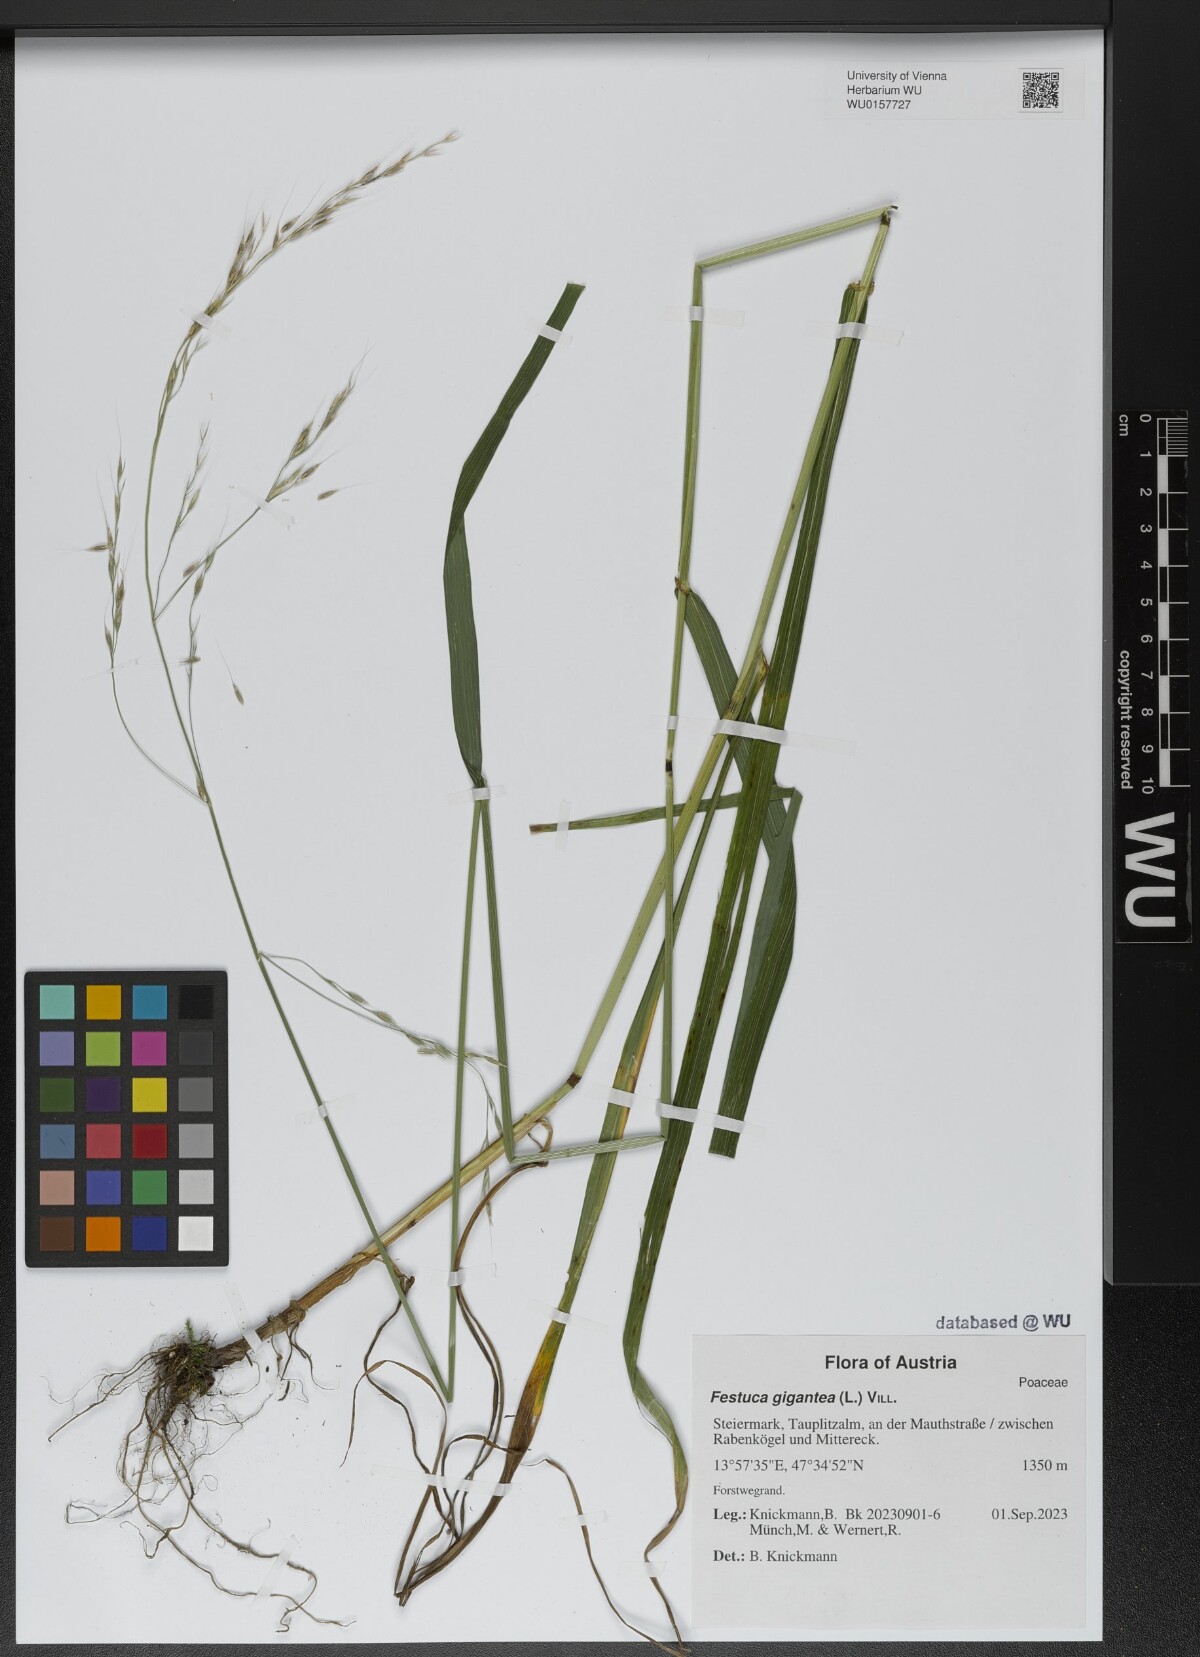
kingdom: Plantae
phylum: Tracheophyta
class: Liliopsida
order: Poales
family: Poaceae
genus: Lolium
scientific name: Lolium giganteum
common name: Giant fescue
